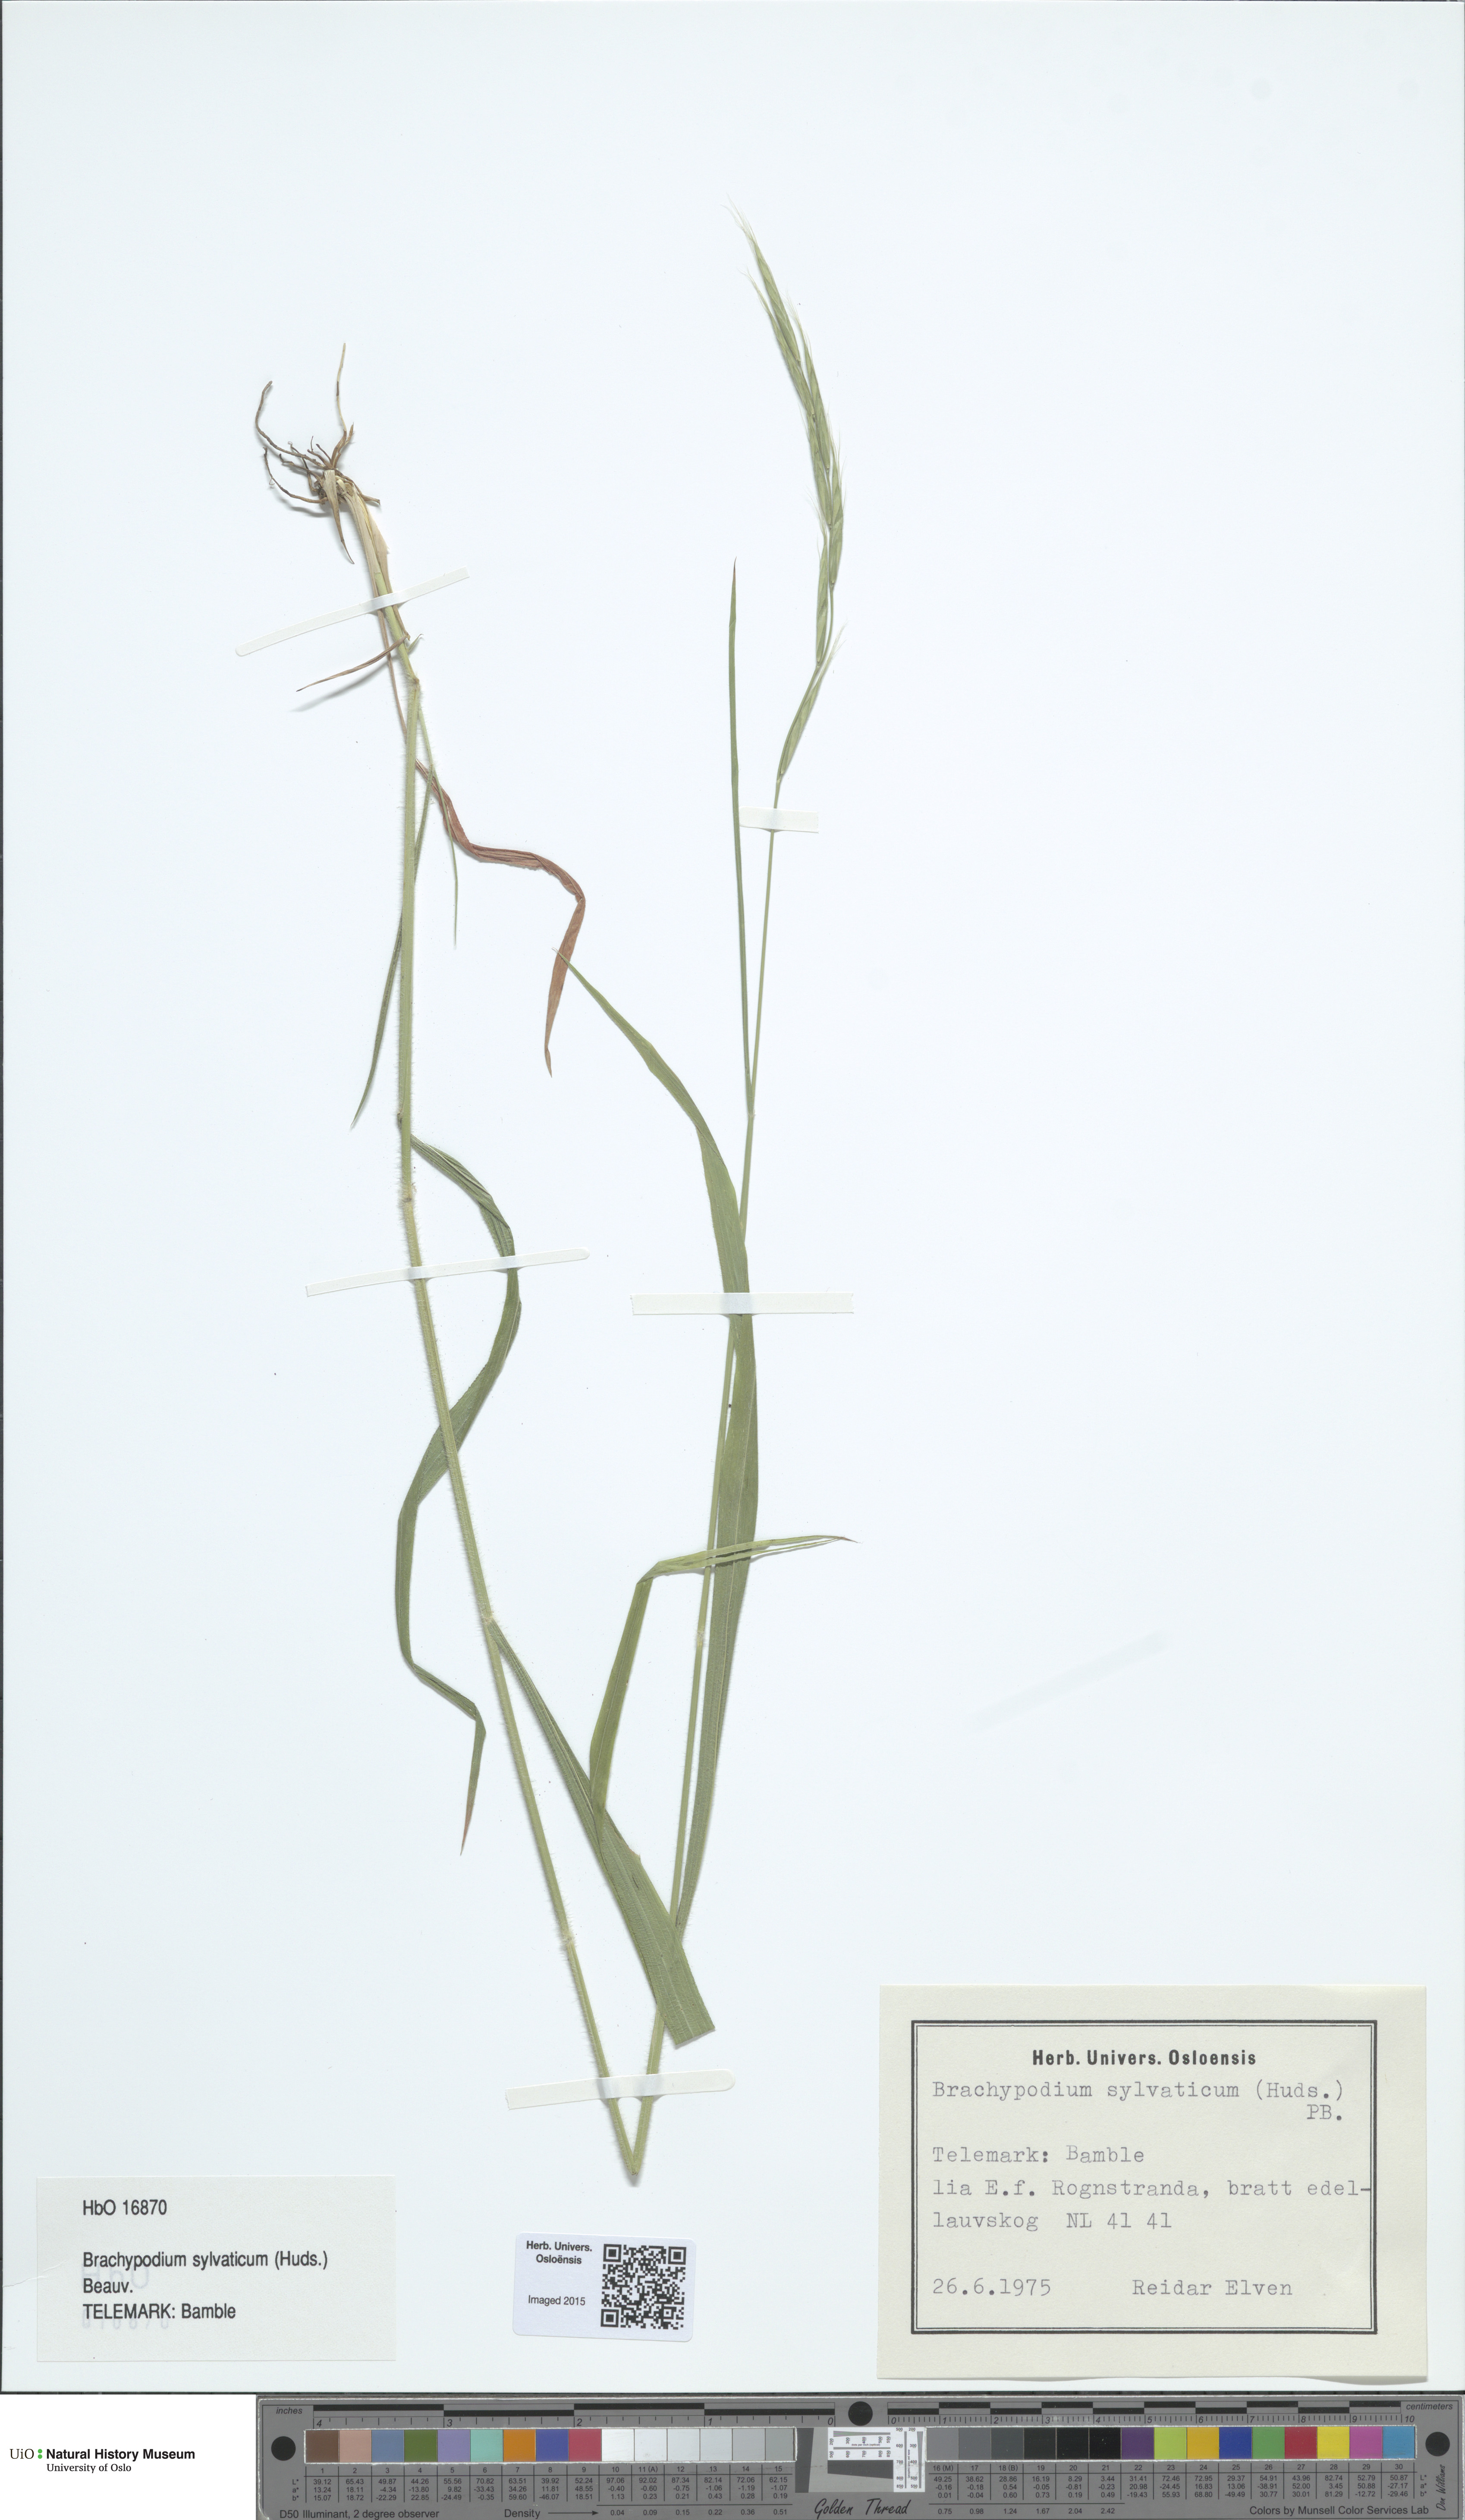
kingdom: Plantae
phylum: Tracheophyta
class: Liliopsida
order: Poales
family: Poaceae
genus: Brachypodium
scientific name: Brachypodium sylvaticum
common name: False-brome
